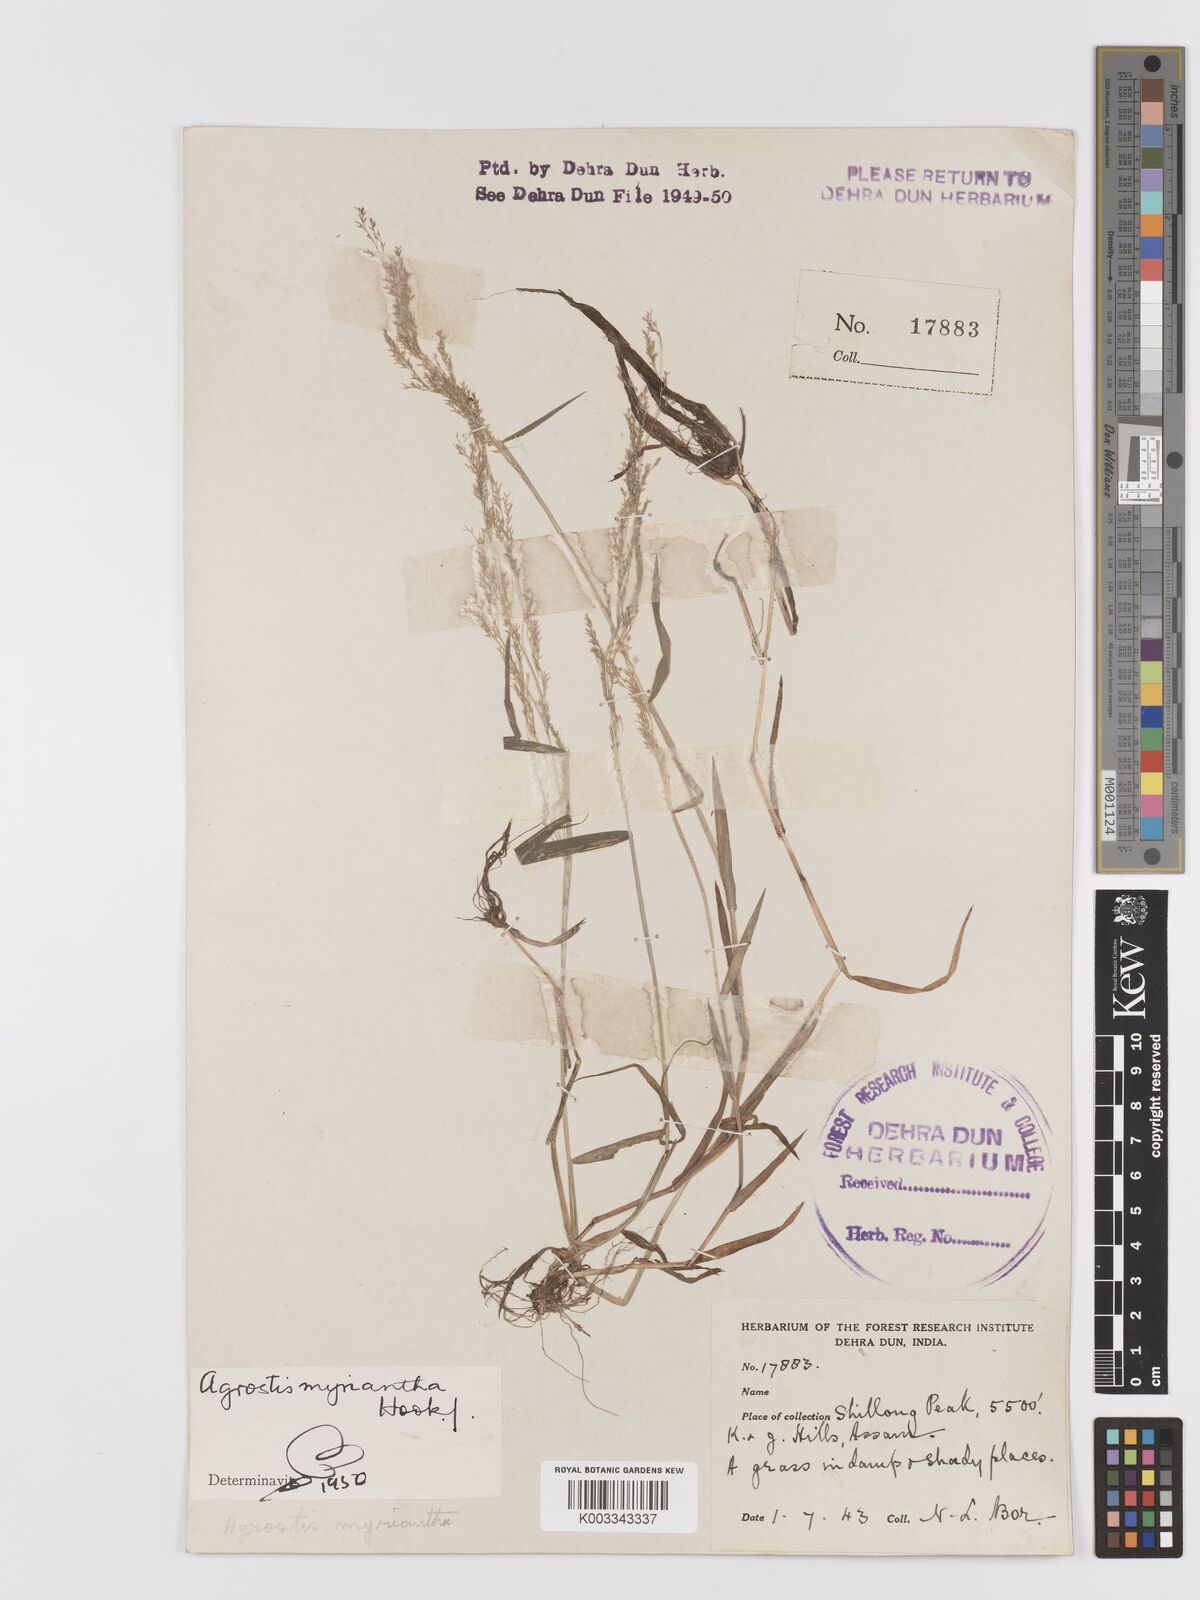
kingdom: Plantae
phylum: Tracheophyta
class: Liliopsida
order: Poales
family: Poaceae
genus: Agrostis
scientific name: Agrostis micrantha
